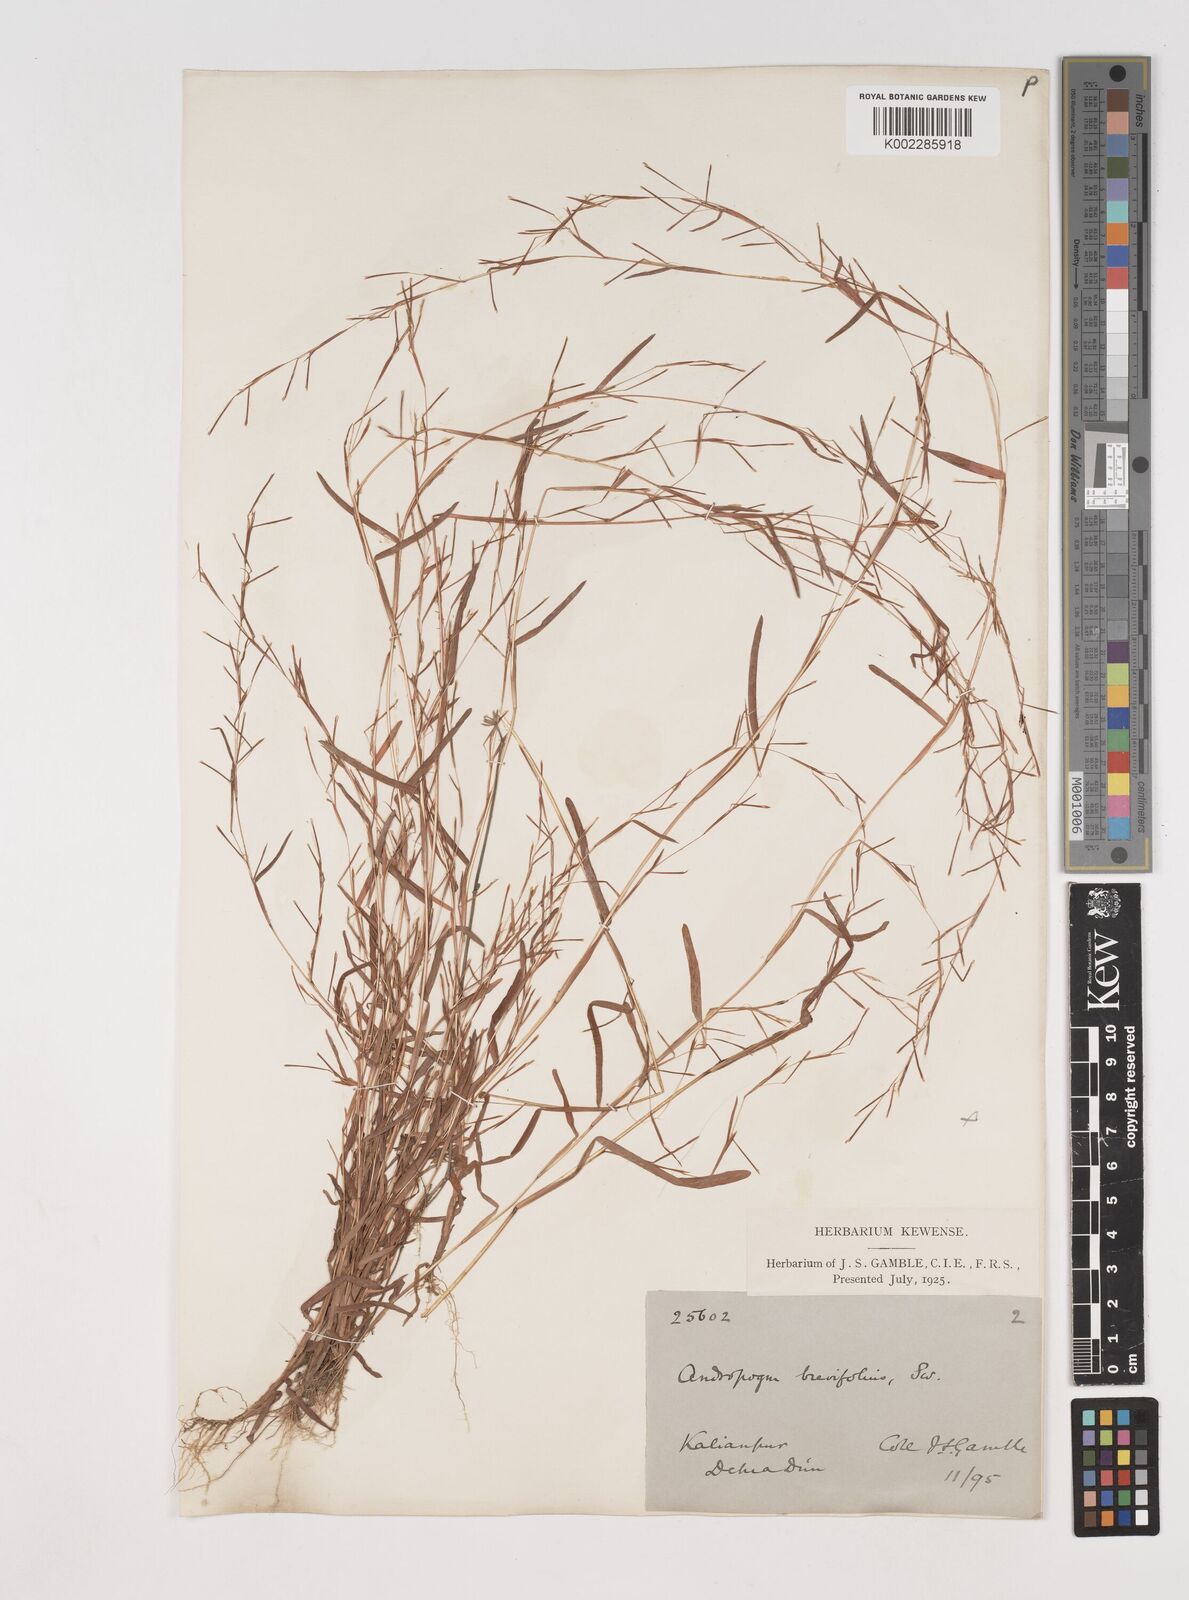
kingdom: Plantae
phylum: Tracheophyta
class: Liliopsida
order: Poales
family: Poaceae
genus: Schizachyrium
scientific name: Schizachyrium brevifolium
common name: Serillo dulce
